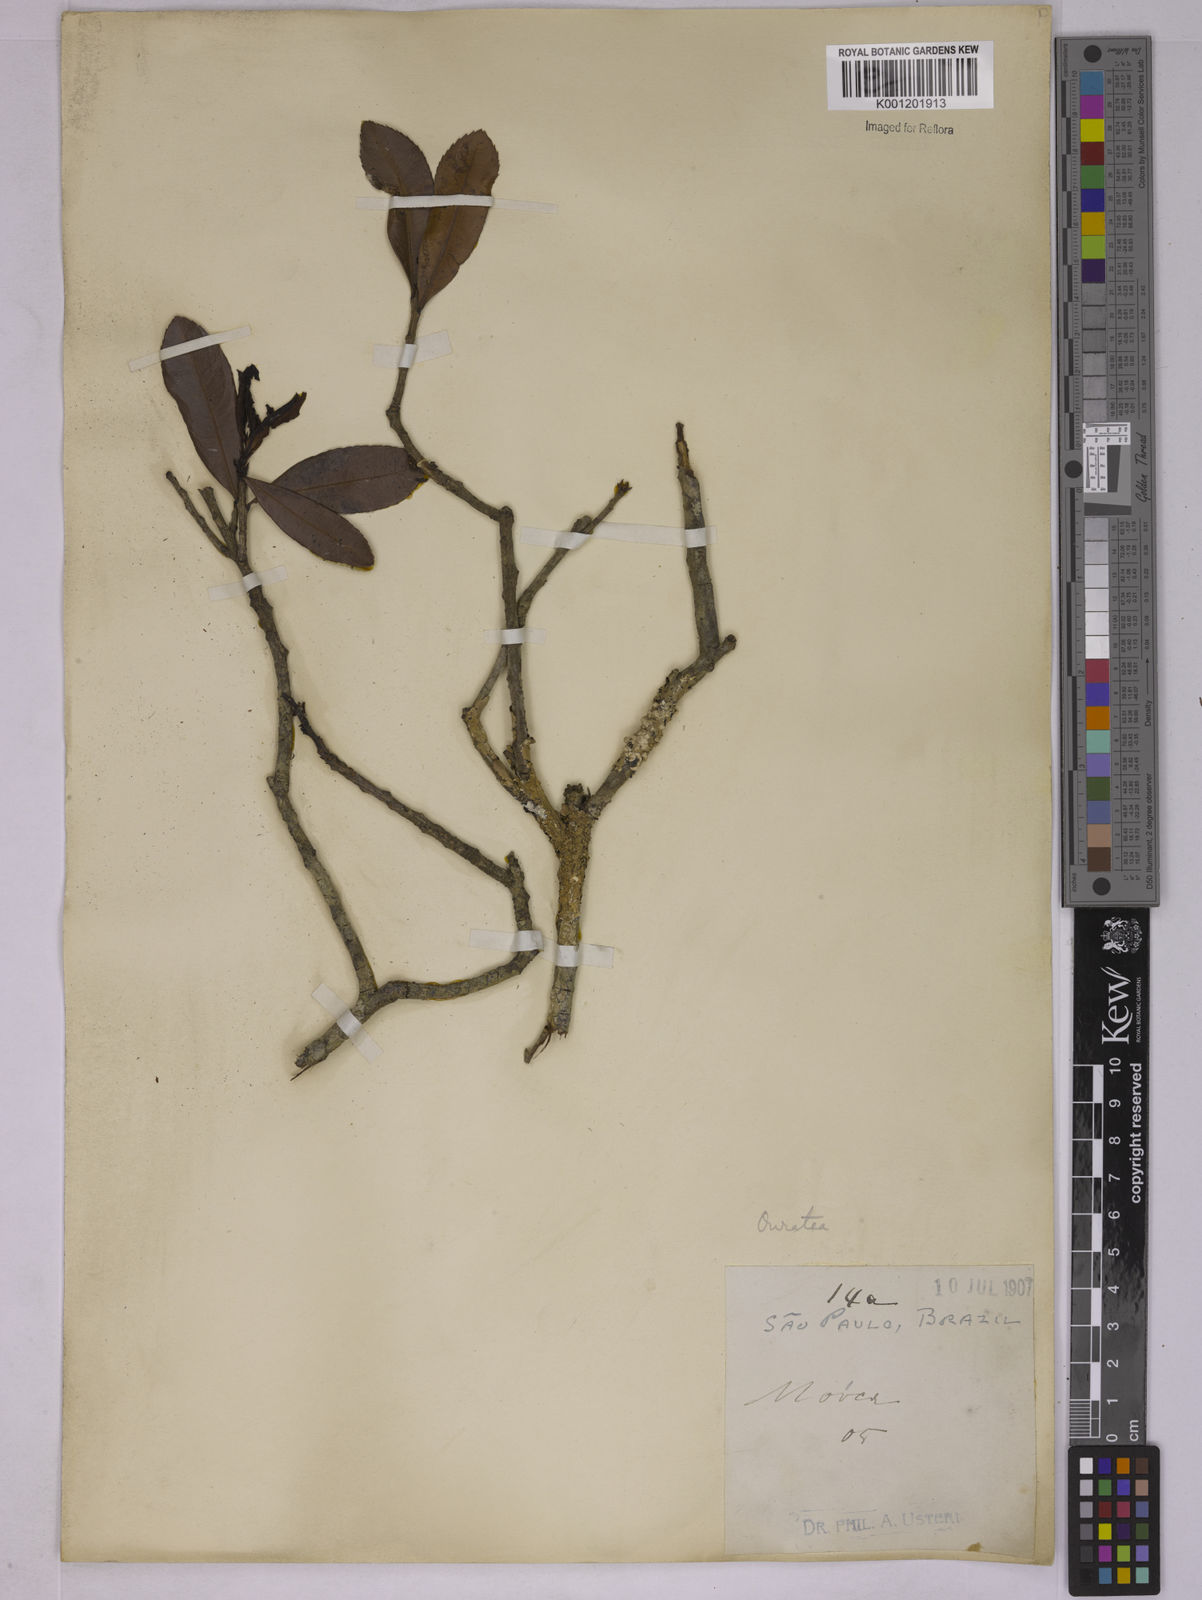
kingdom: Plantae
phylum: Tracheophyta
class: Magnoliopsida
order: Malpighiales
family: Ochnaceae
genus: Ouratea
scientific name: Ouratea floribunda
